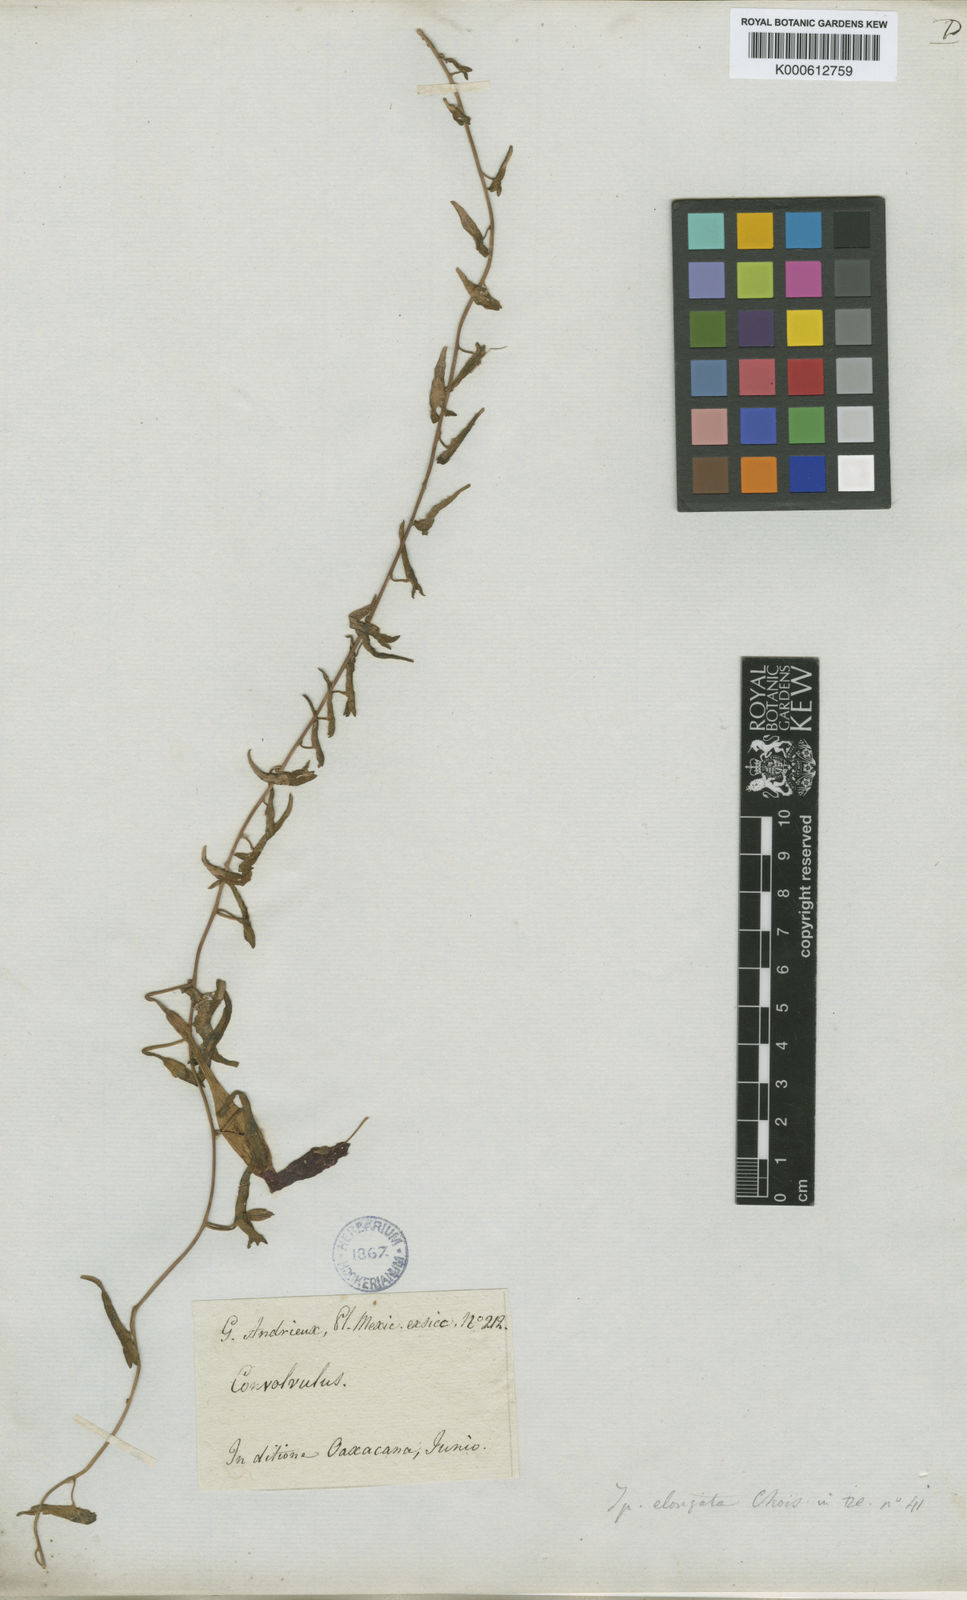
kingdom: Plantae
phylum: Tracheophyta
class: Magnoliopsida
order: Solanales
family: Convolvulaceae
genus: Ipomoea
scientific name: Ipomoea elongata
